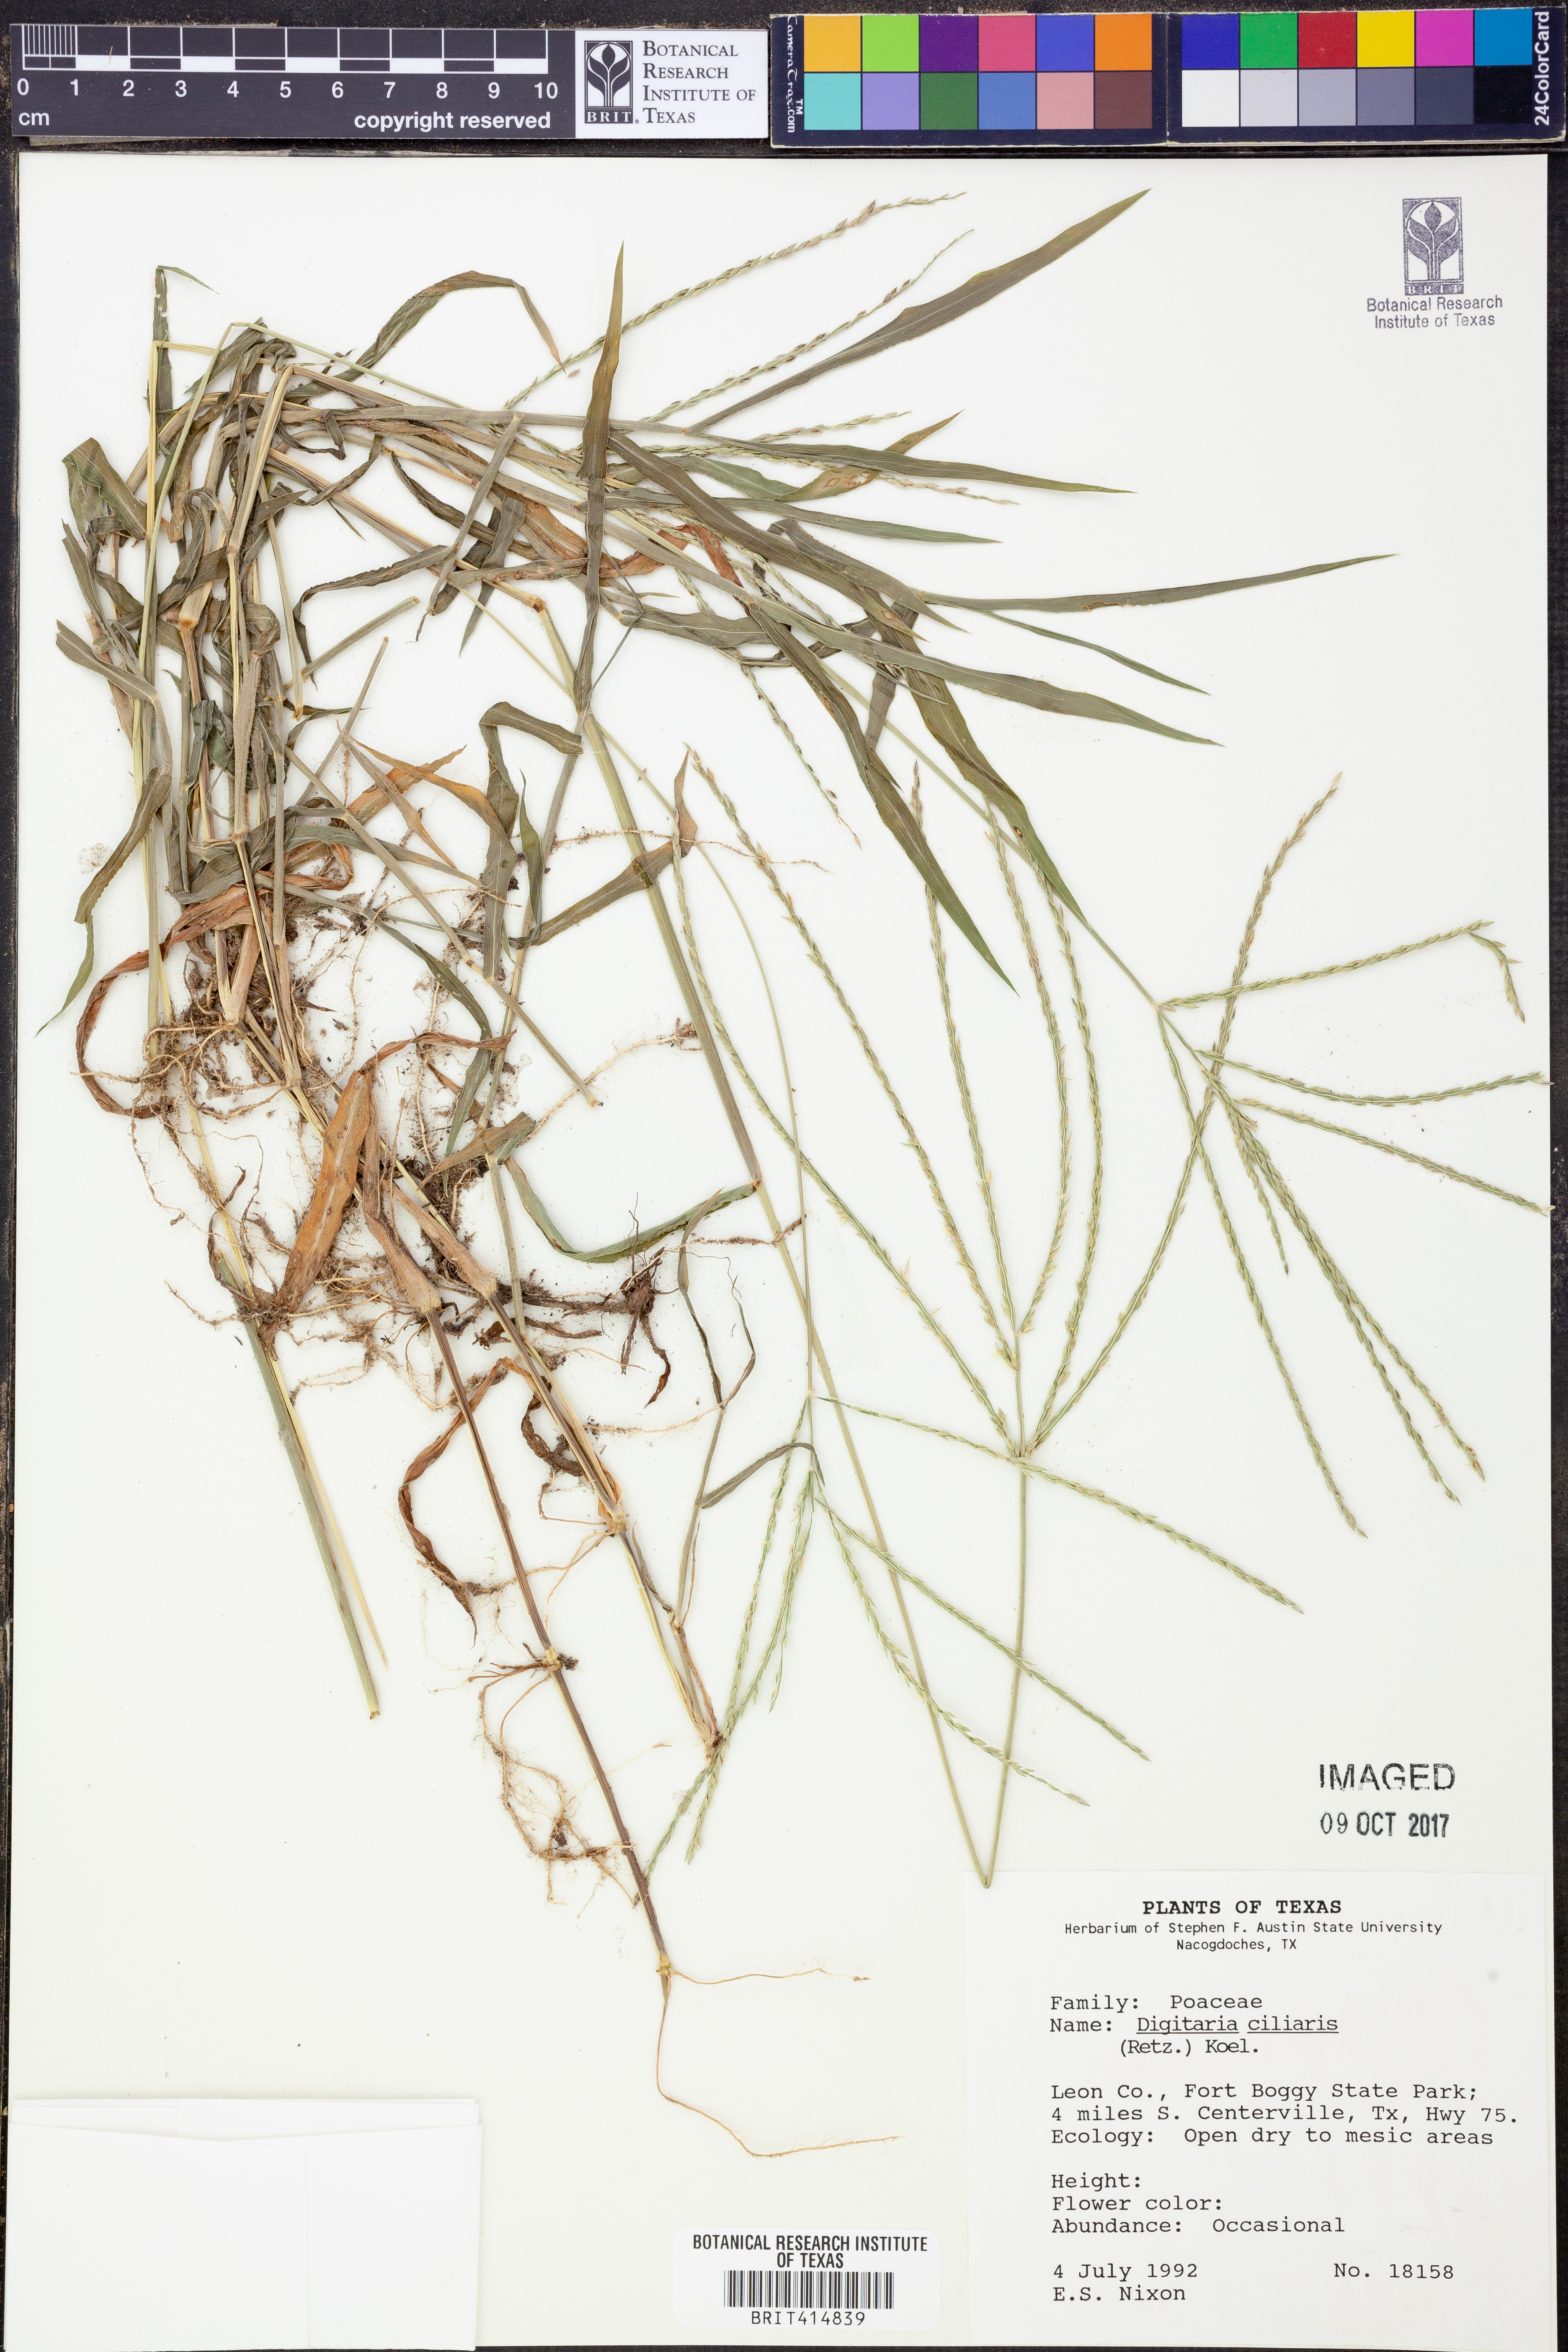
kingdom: Plantae
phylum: Tracheophyta
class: Liliopsida
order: Poales
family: Poaceae
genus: Digitaria
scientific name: Digitaria ciliaris
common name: Tropical finger-grass
